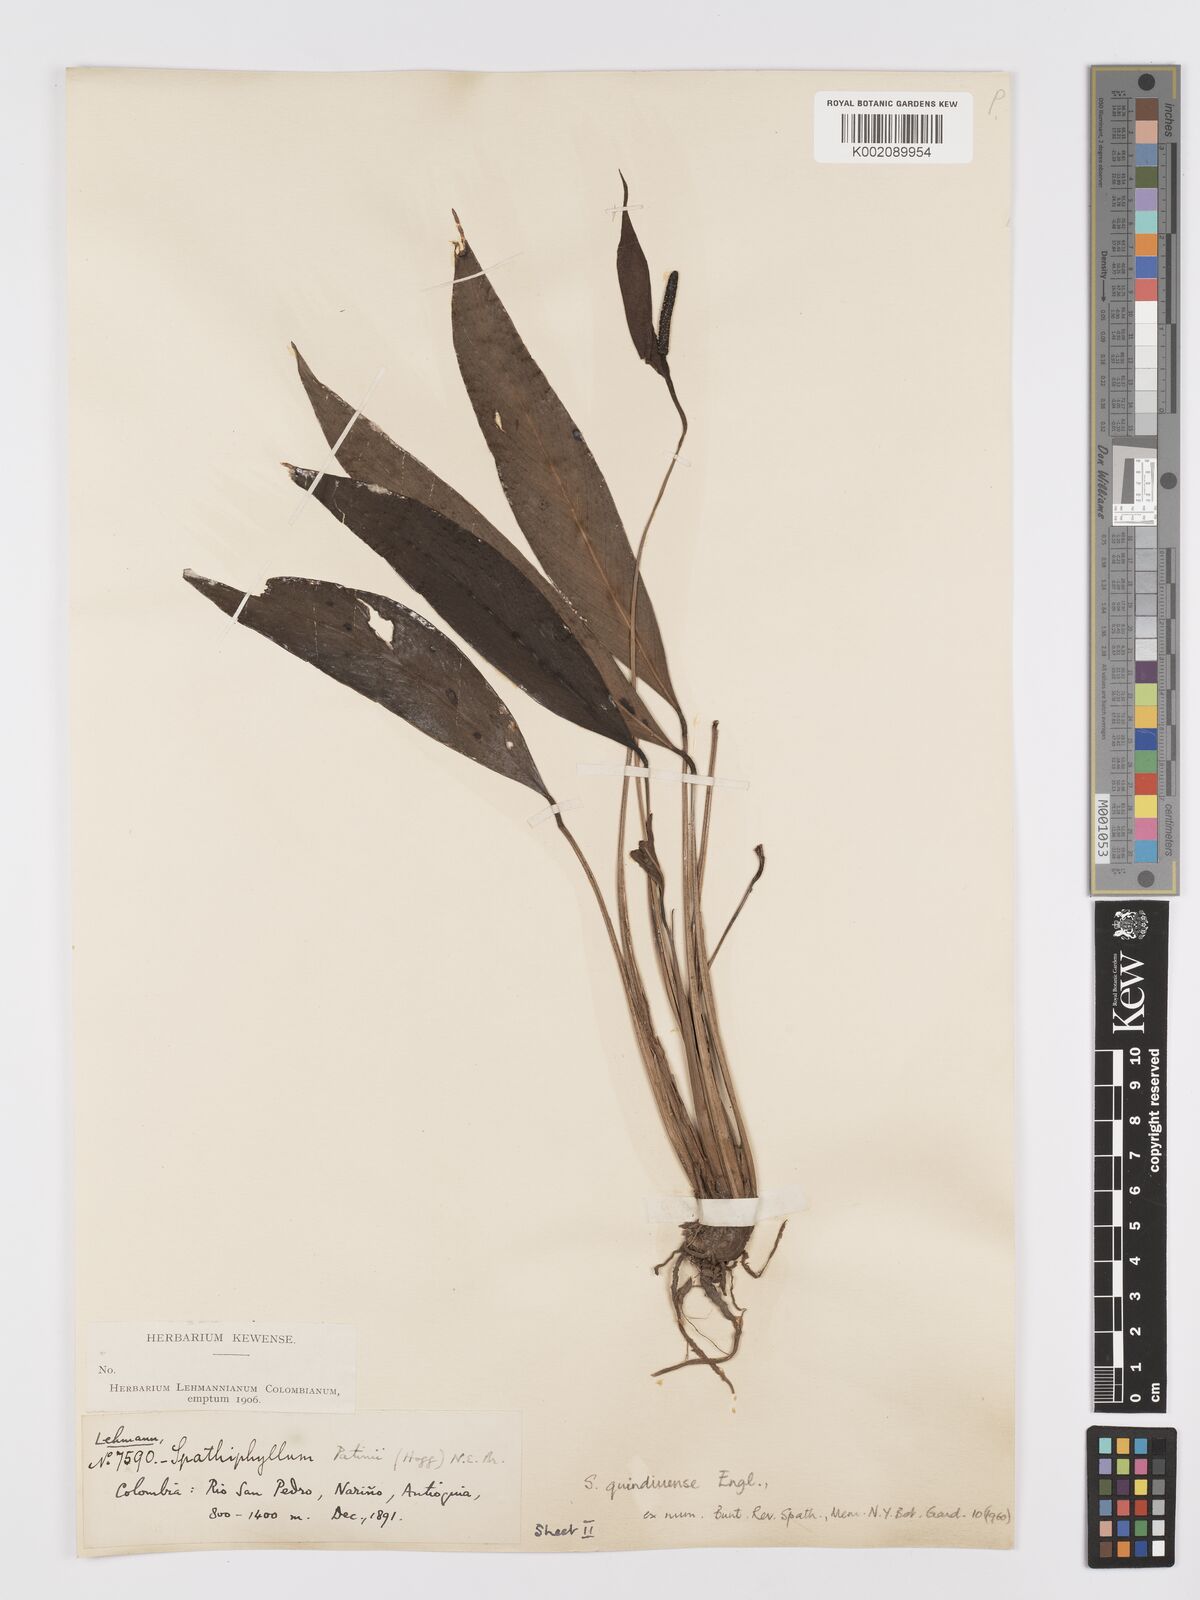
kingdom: Plantae
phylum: Tracheophyta
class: Liliopsida
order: Alismatales
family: Araceae
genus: Spathiphyllum
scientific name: Spathiphyllum quindiuense
